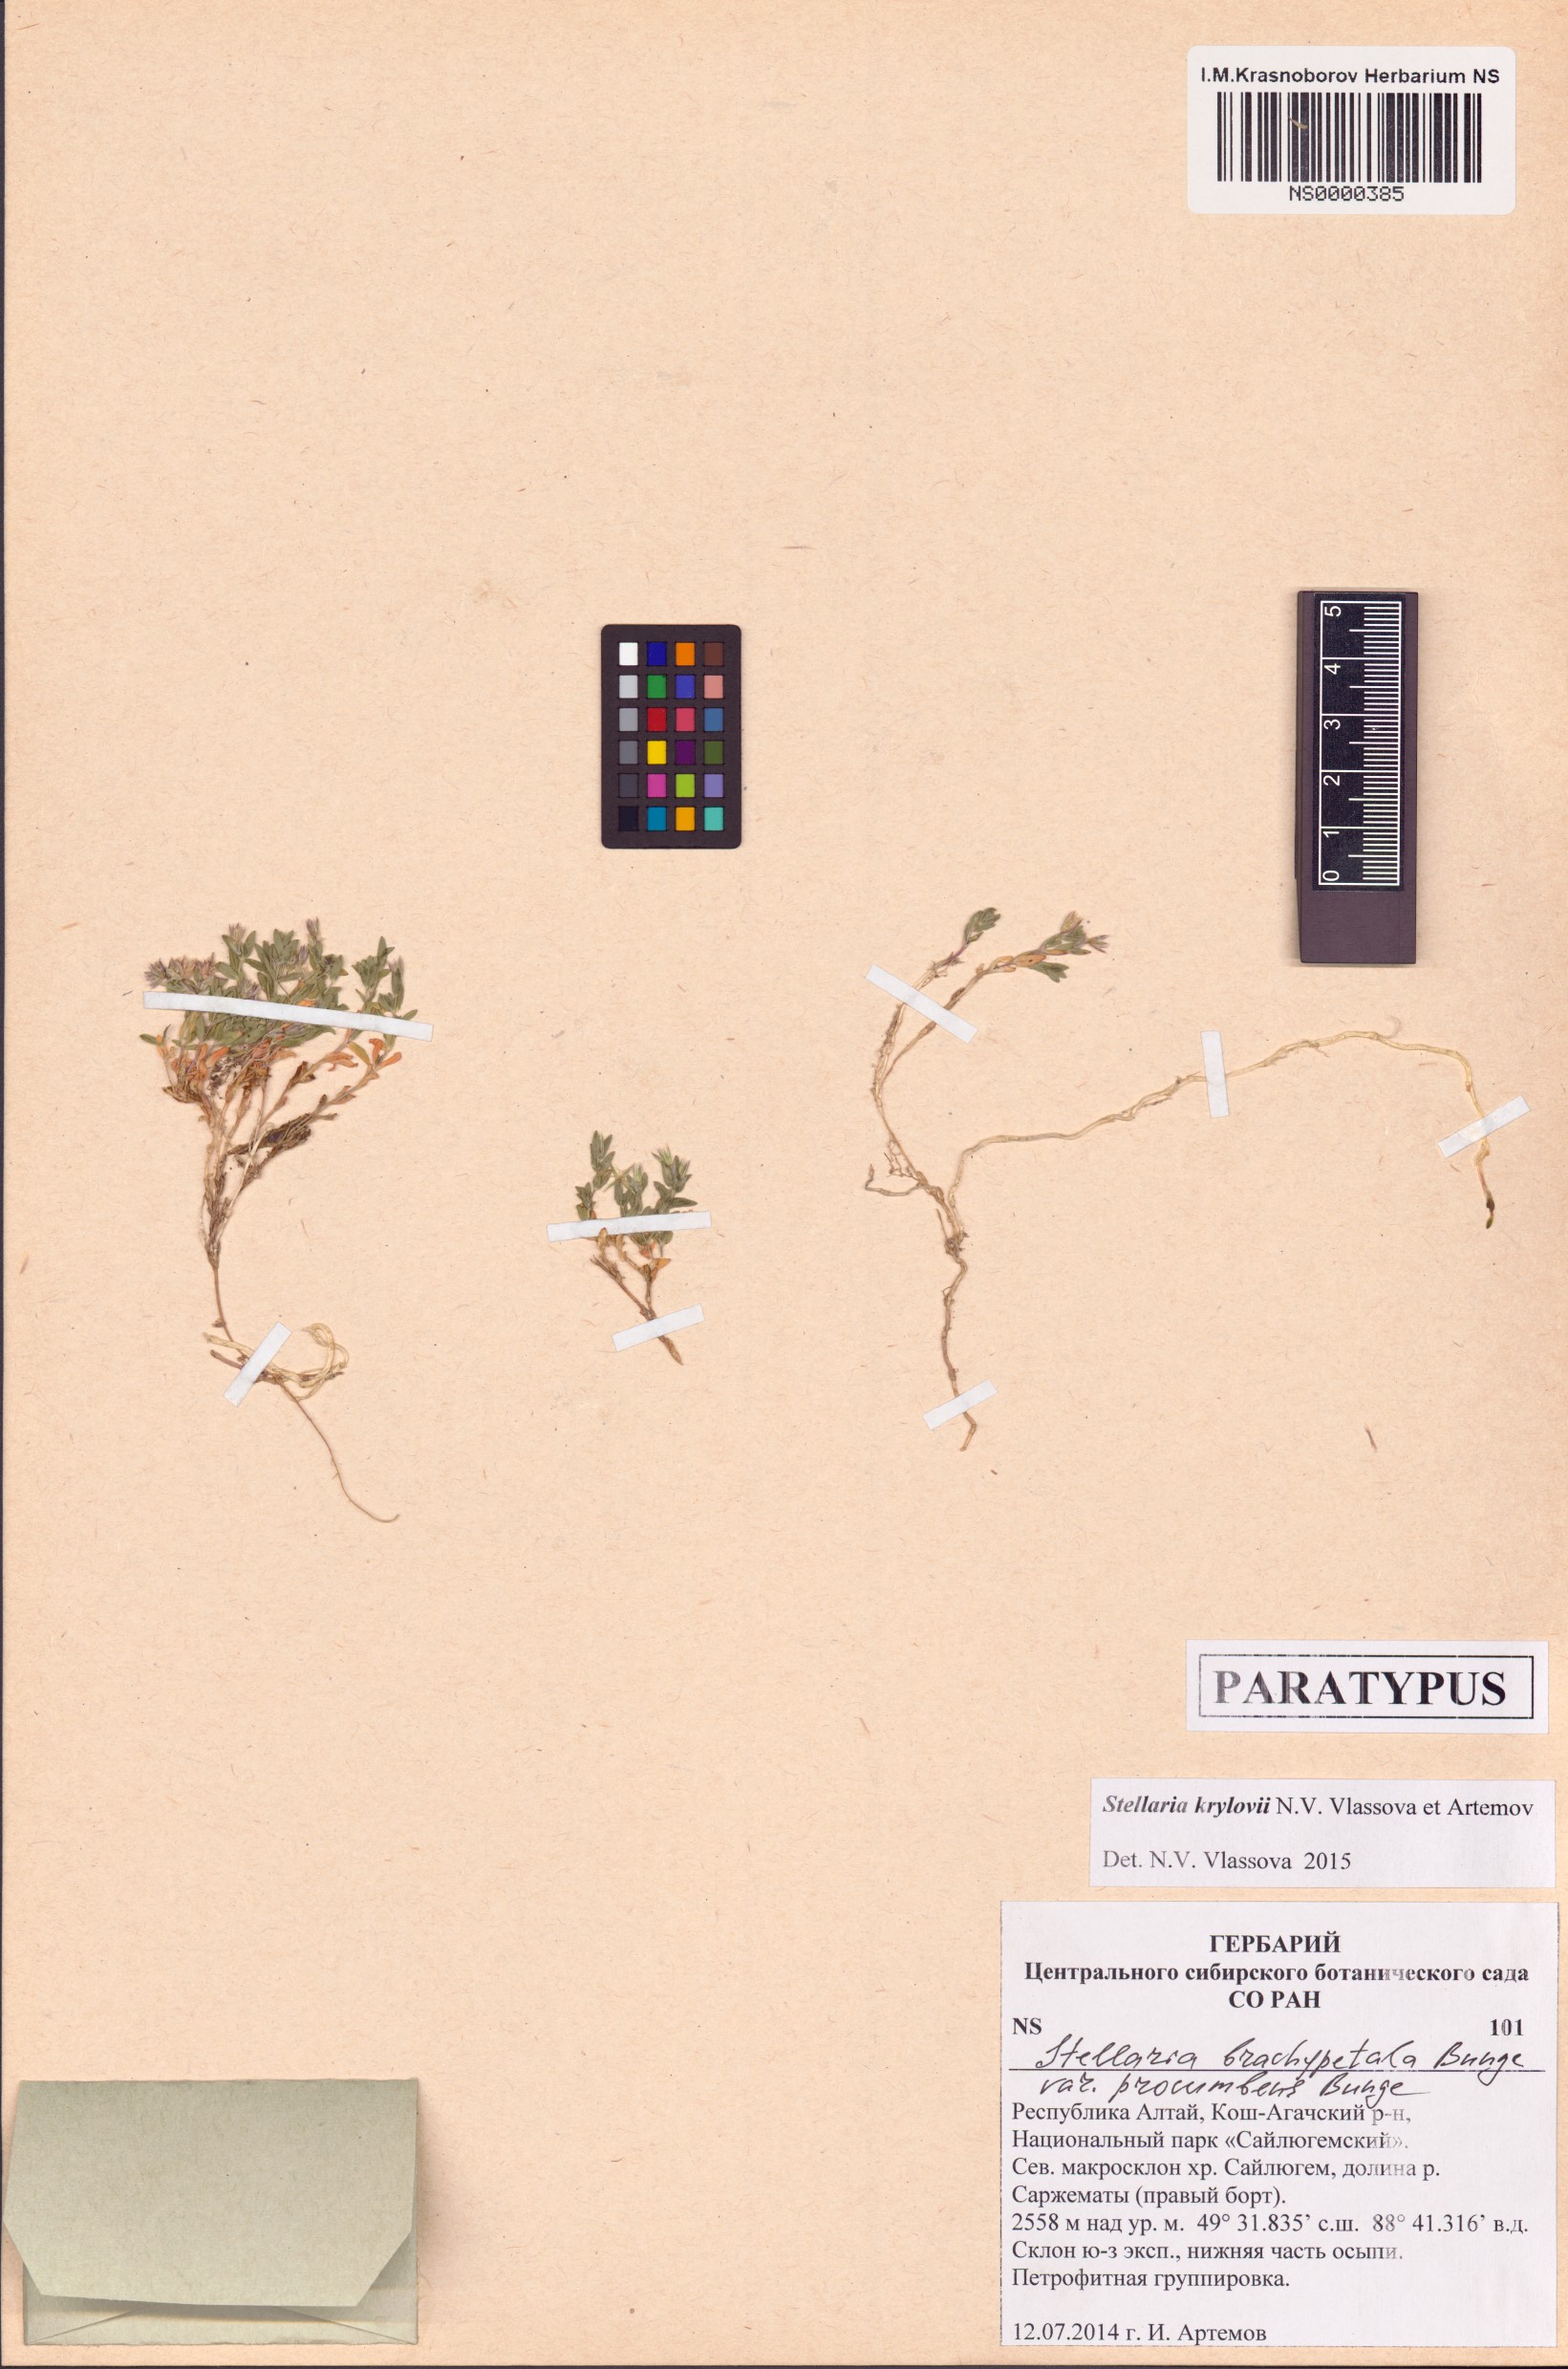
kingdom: Plantae
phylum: Tracheophyta
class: Magnoliopsida
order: Caryophyllales
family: Caryophyllaceae
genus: Stellaria
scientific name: Stellaria krylovii
